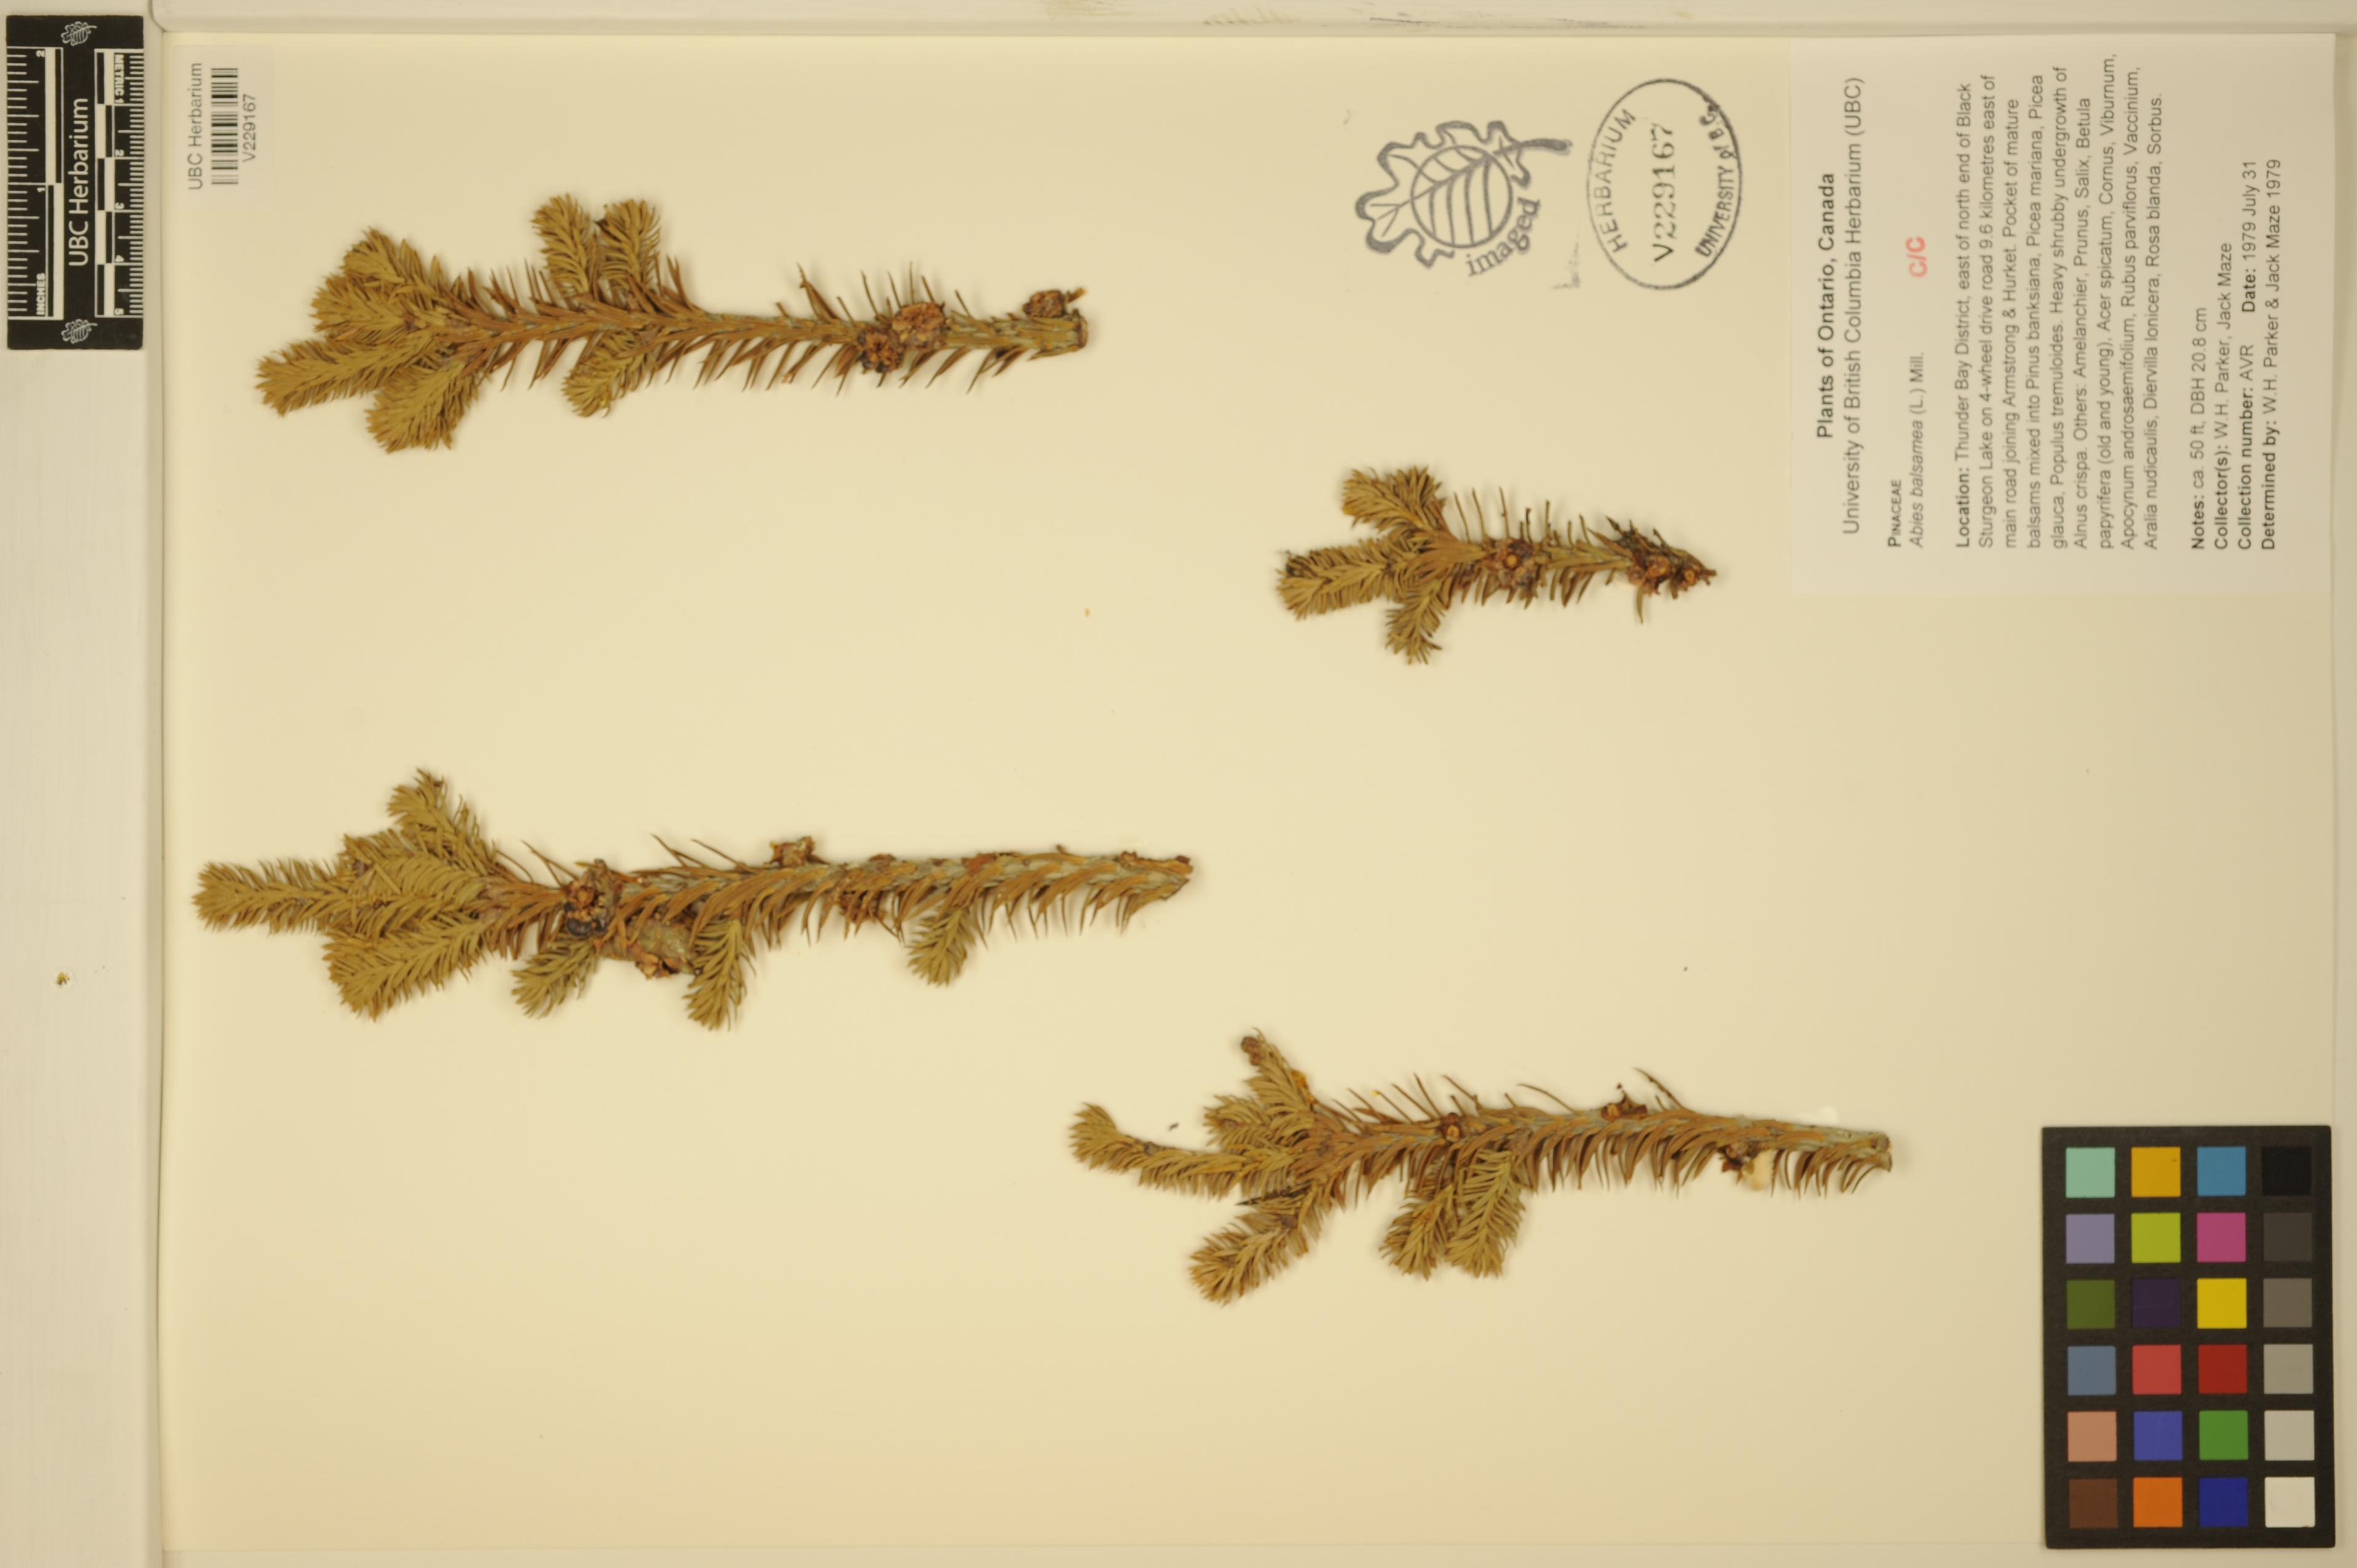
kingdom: Plantae
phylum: Tracheophyta
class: Pinopsida
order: Pinales
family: Pinaceae
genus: Abies
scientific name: Abies balsamea
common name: Balsam fir
